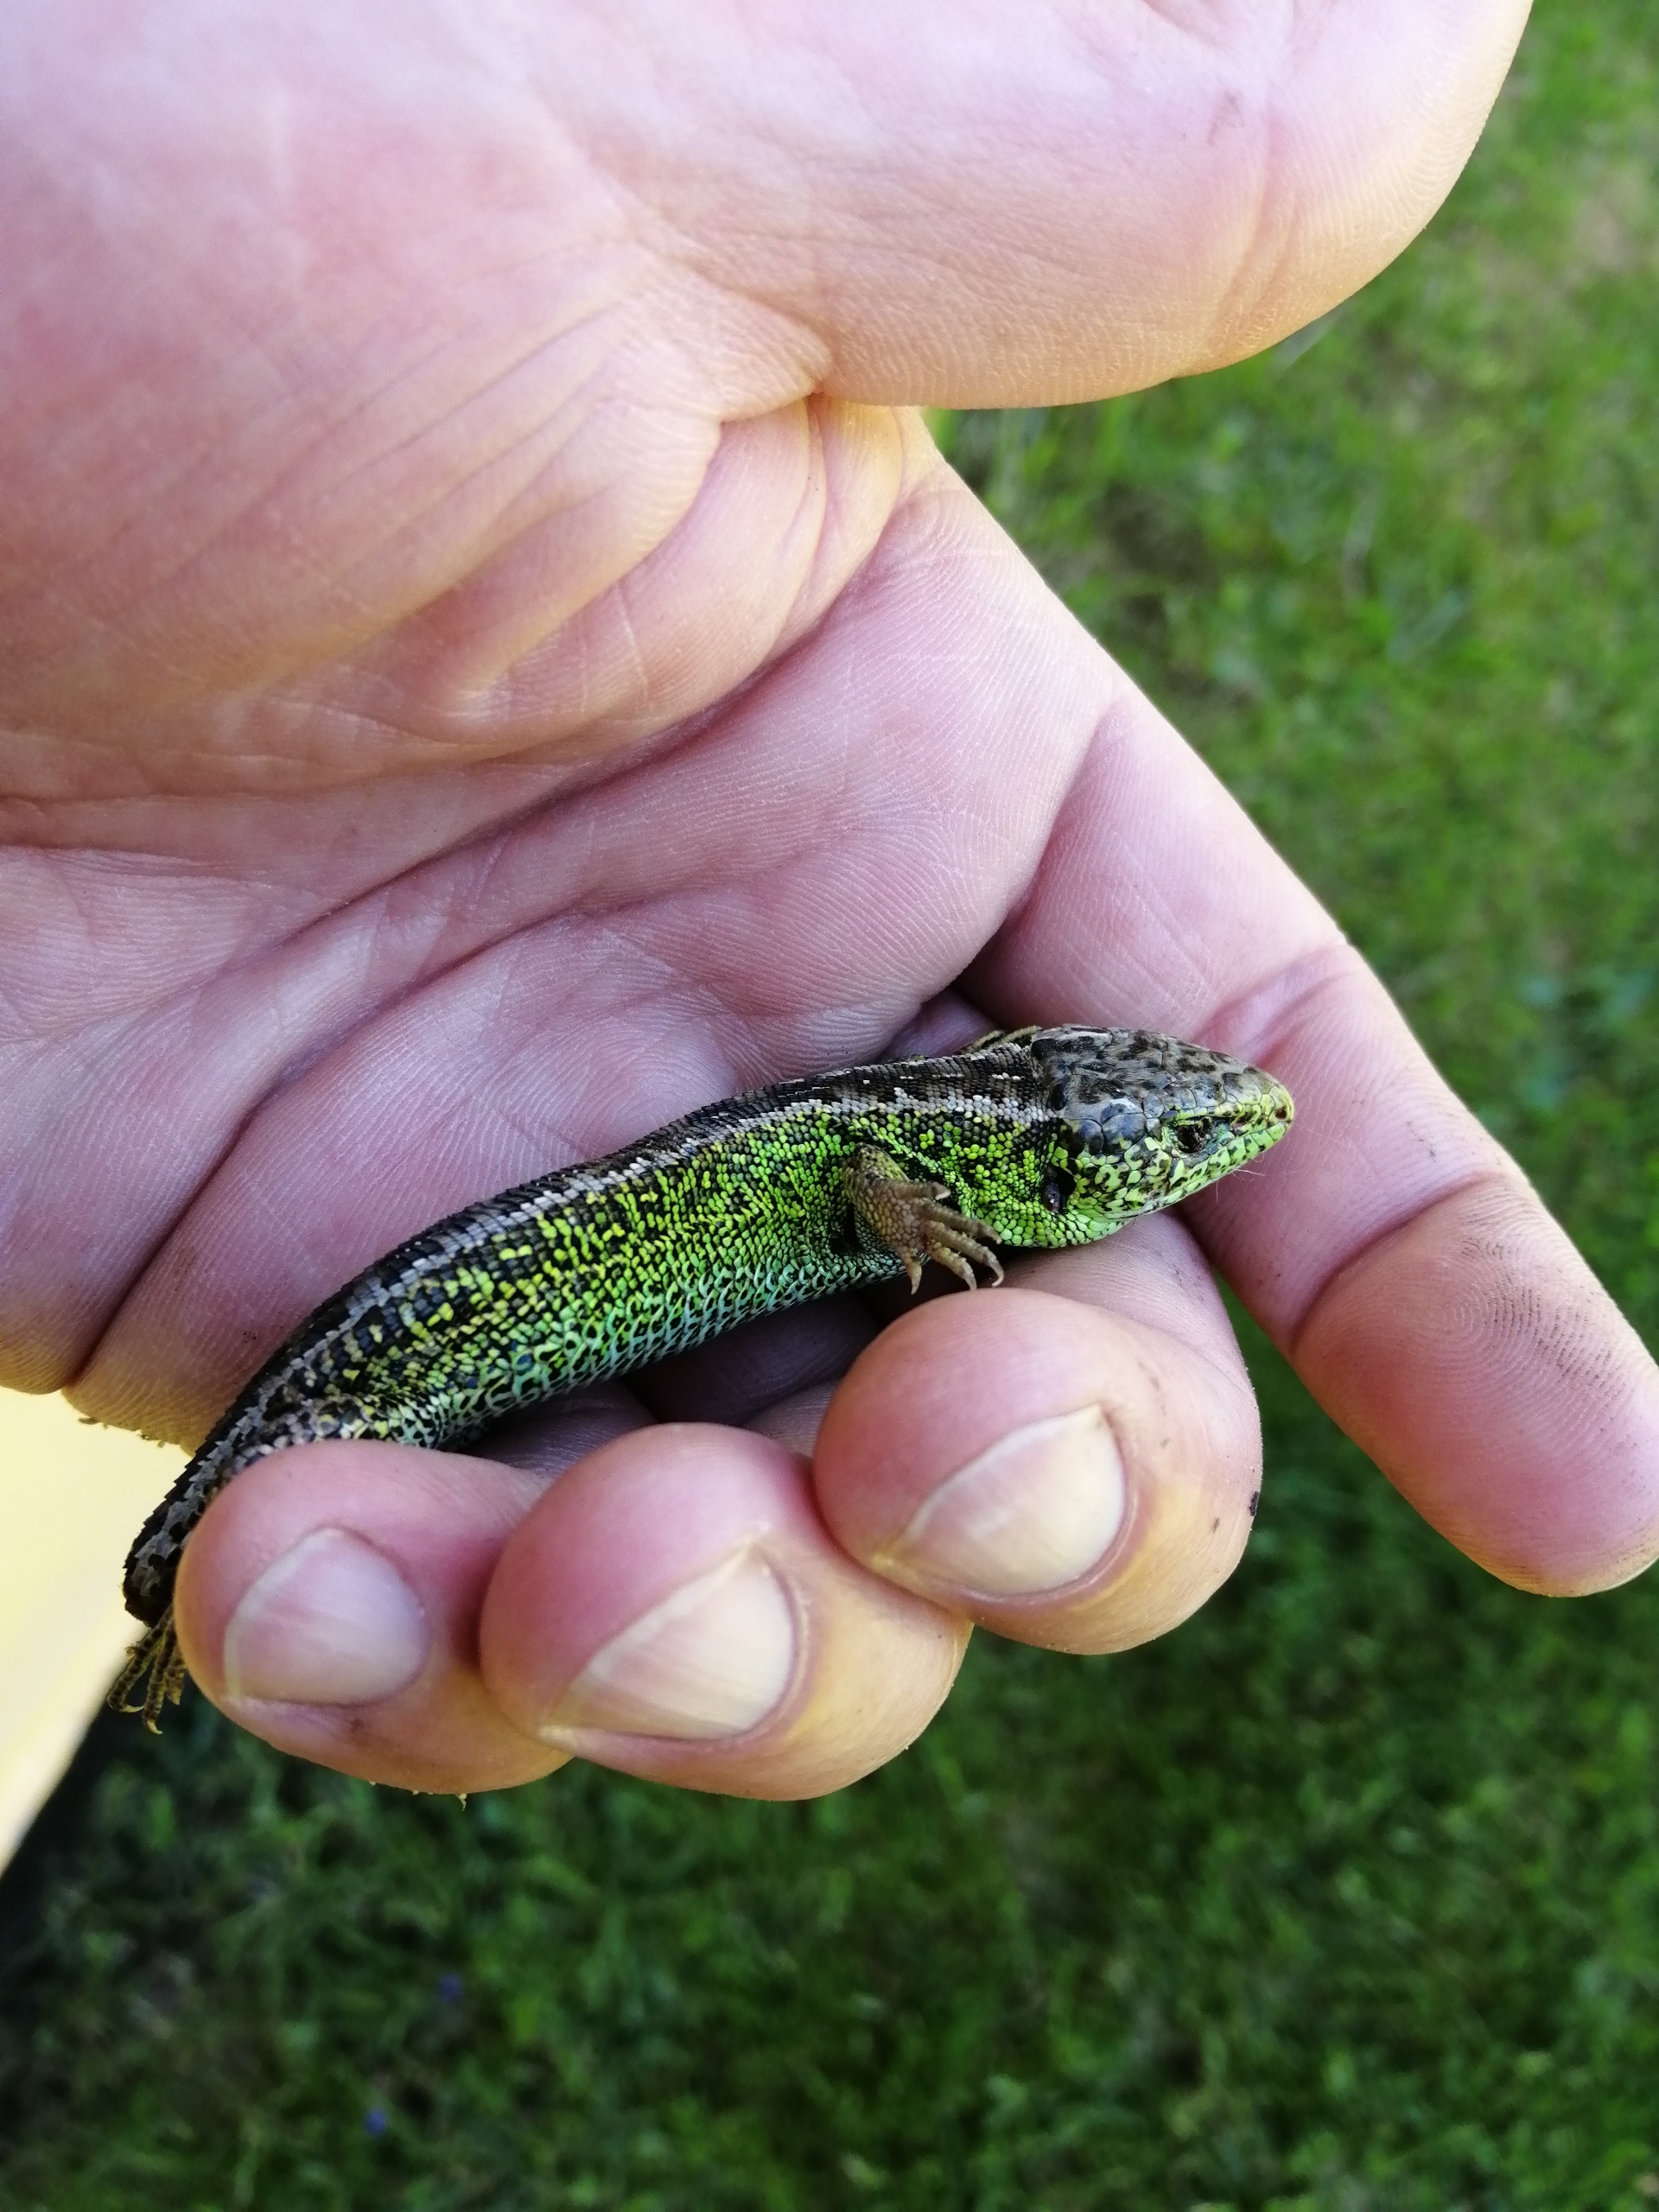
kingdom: Animalia
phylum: Chordata
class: Squamata
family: Lacertidae
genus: Lacerta
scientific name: Lacerta agilis
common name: Markfirben
